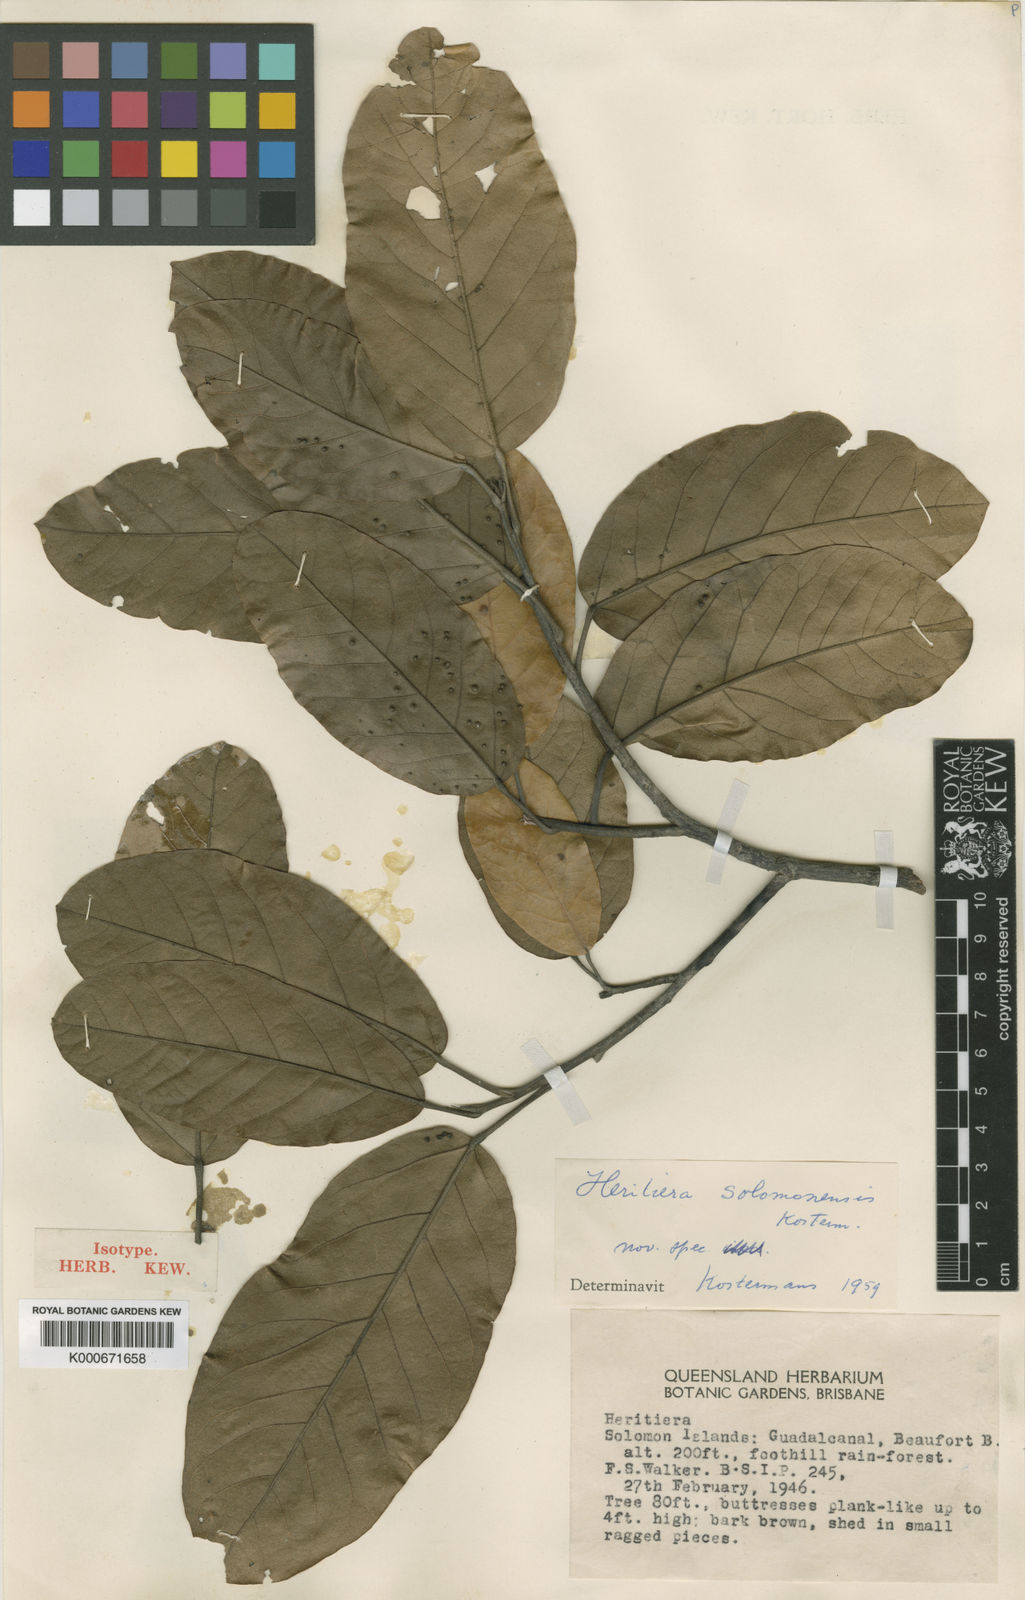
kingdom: Plantae
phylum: Tracheophyta
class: Magnoliopsida
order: Malvales
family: Malvaceae
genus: Heritiera
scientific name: Heritiera solomonensis
